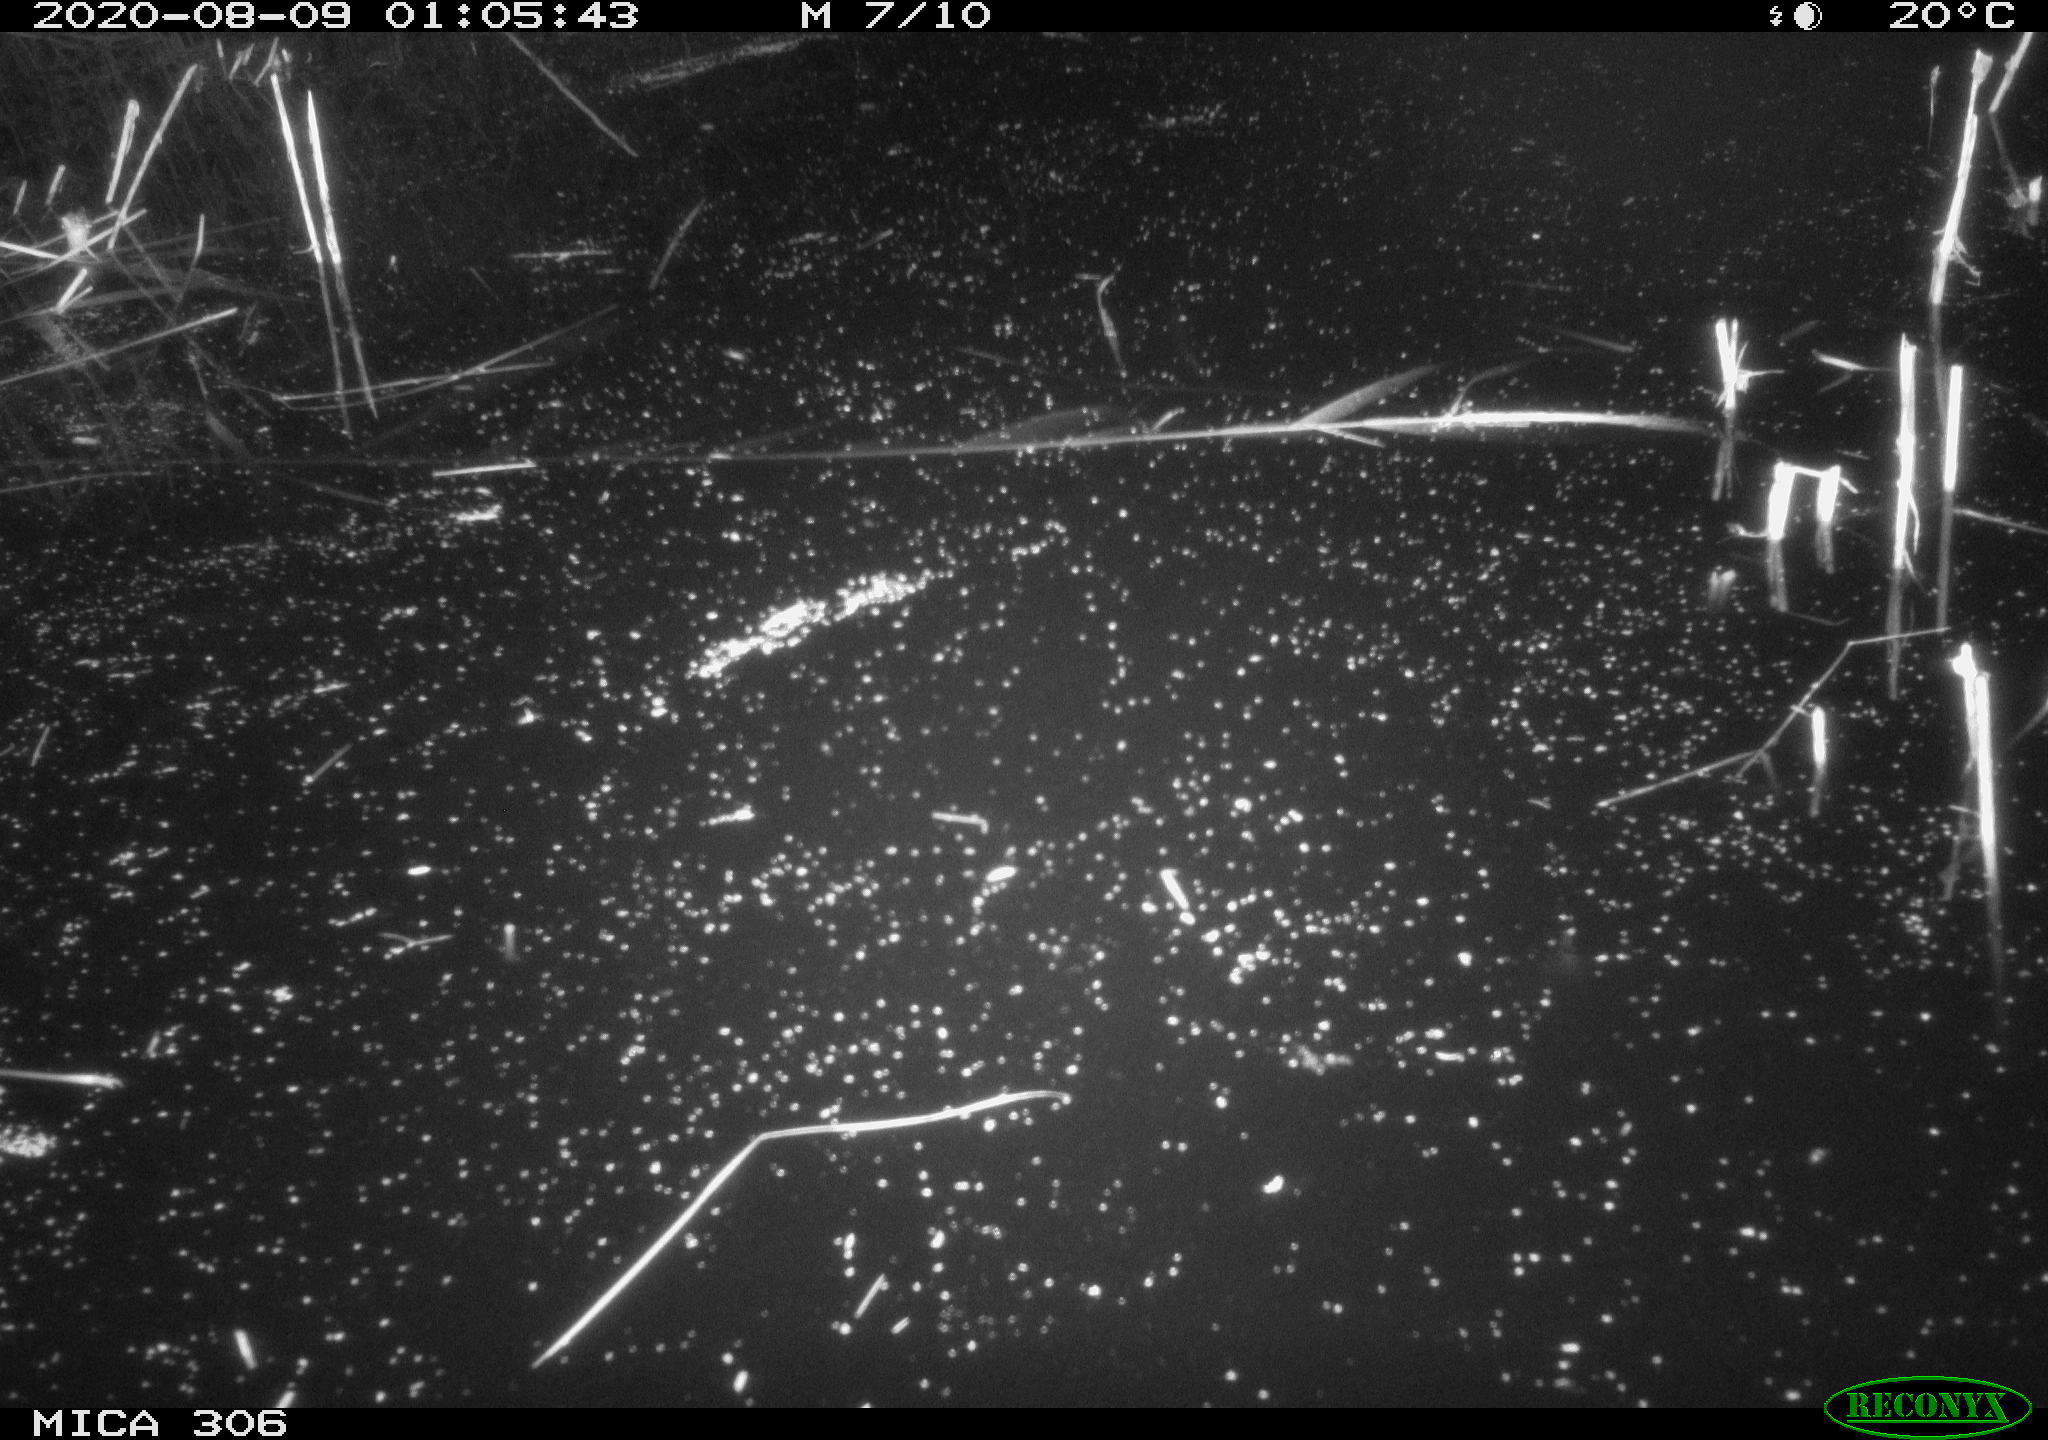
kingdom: Animalia
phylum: Chordata
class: Mammalia
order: Rodentia
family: Muridae
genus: Rattus
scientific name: Rattus norvegicus
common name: Brown rat
